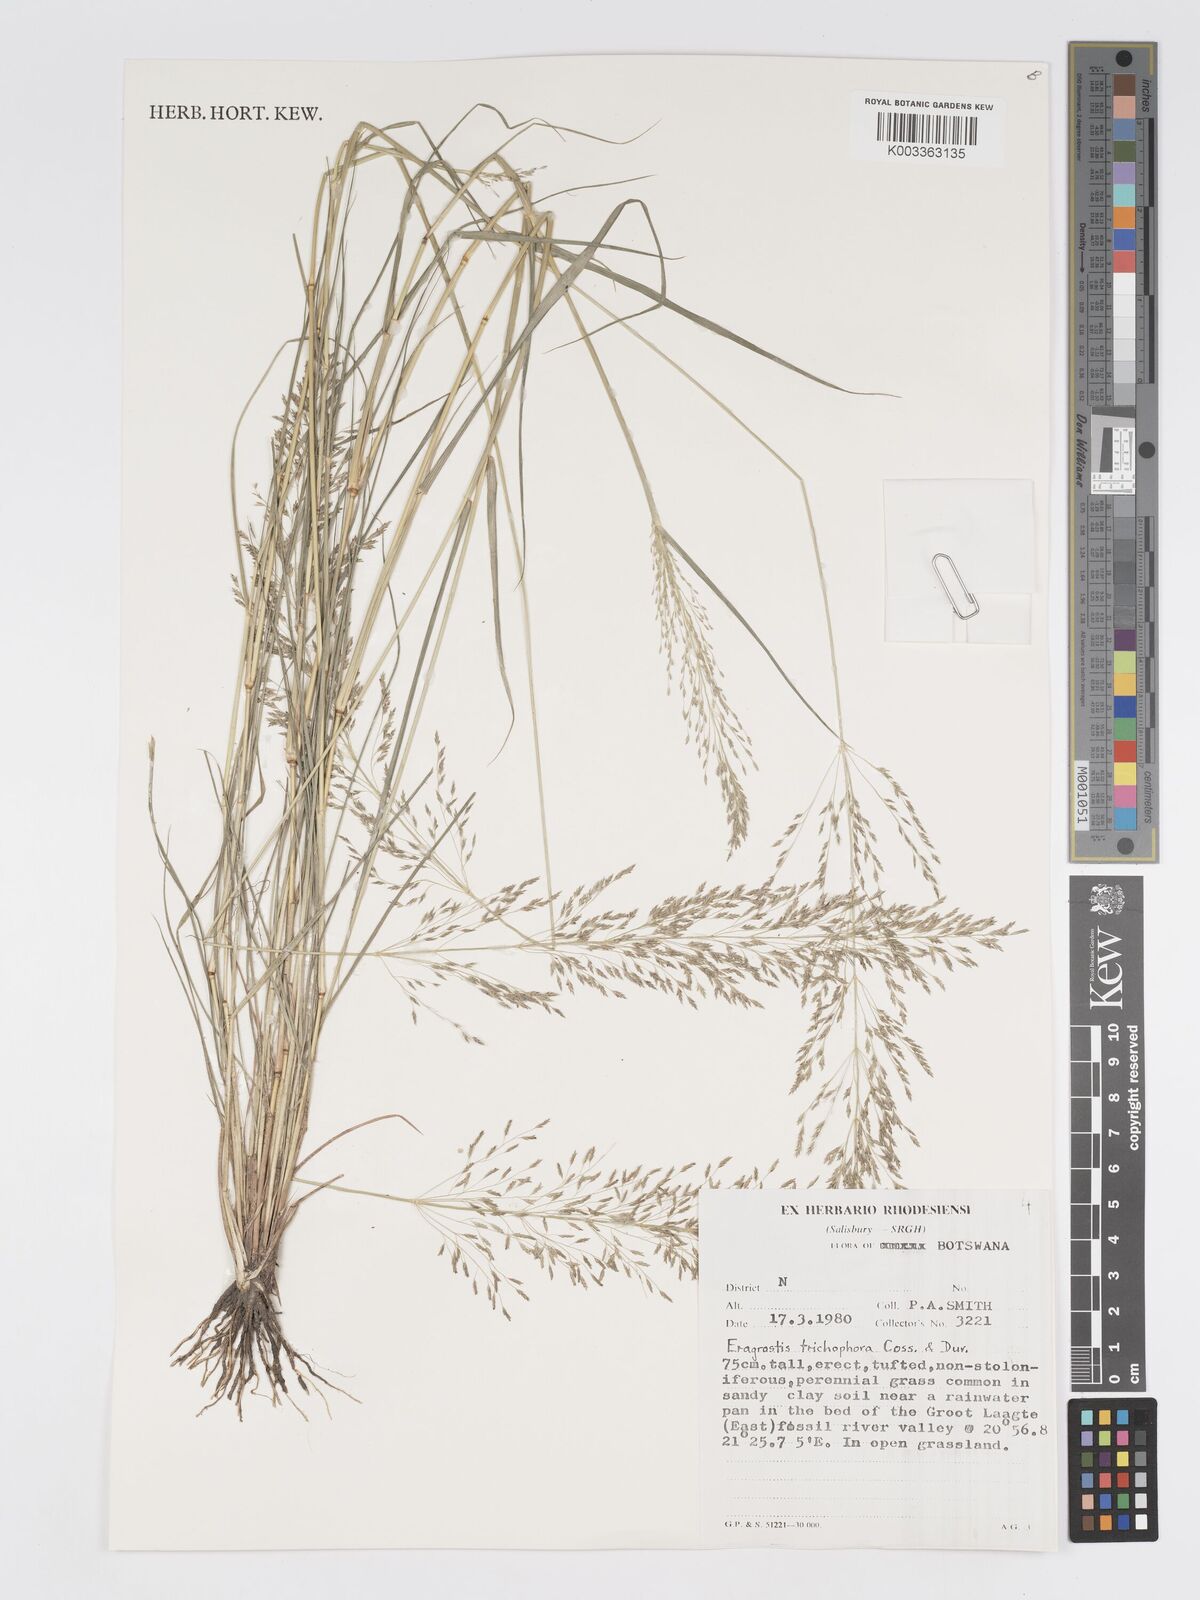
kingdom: Plantae
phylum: Tracheophyta
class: Liliopsida
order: Poales
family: Poaceae
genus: Eragrostis
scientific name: Eragrostis cylindriflora
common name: Cylinderflower lovegrass
